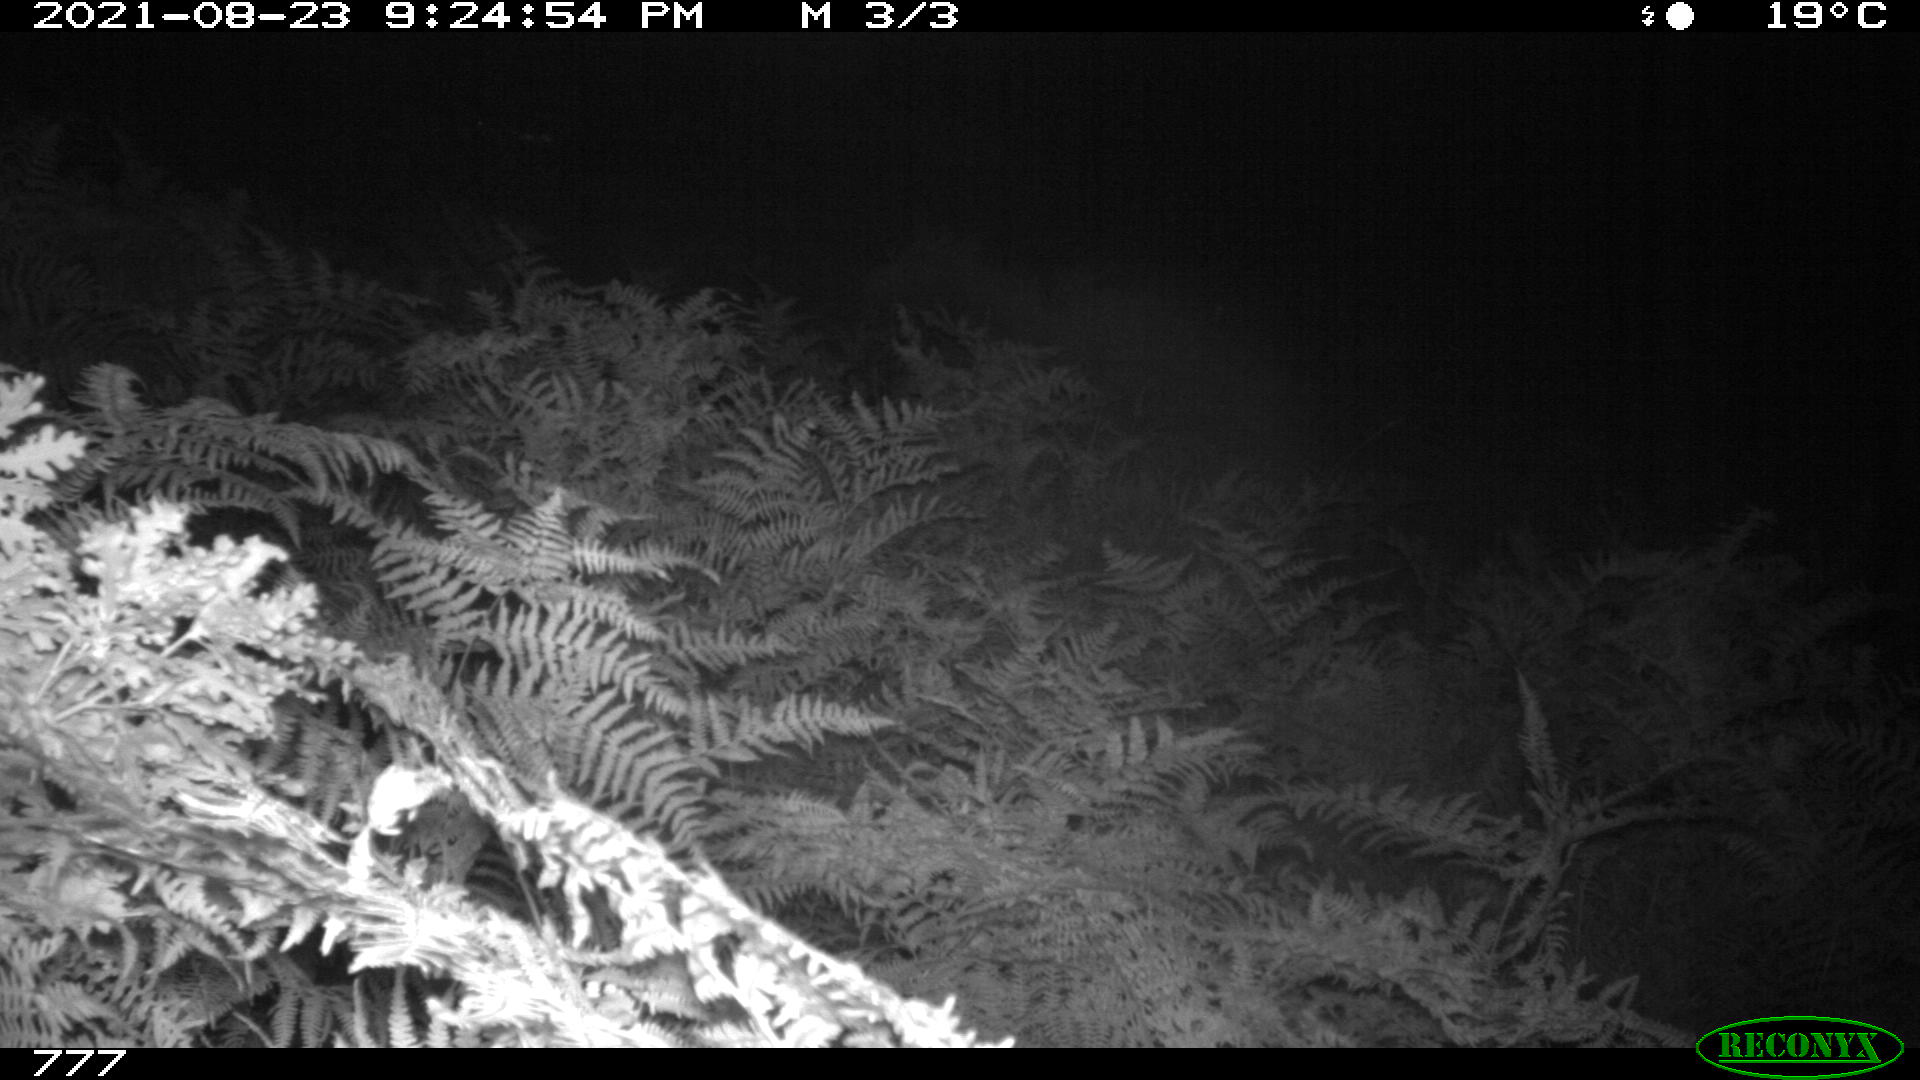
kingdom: Animalia
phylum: Chordata
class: Mammalia
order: Perissodactyla
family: Equidae
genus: Equus
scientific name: Equus caballus
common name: Horse
